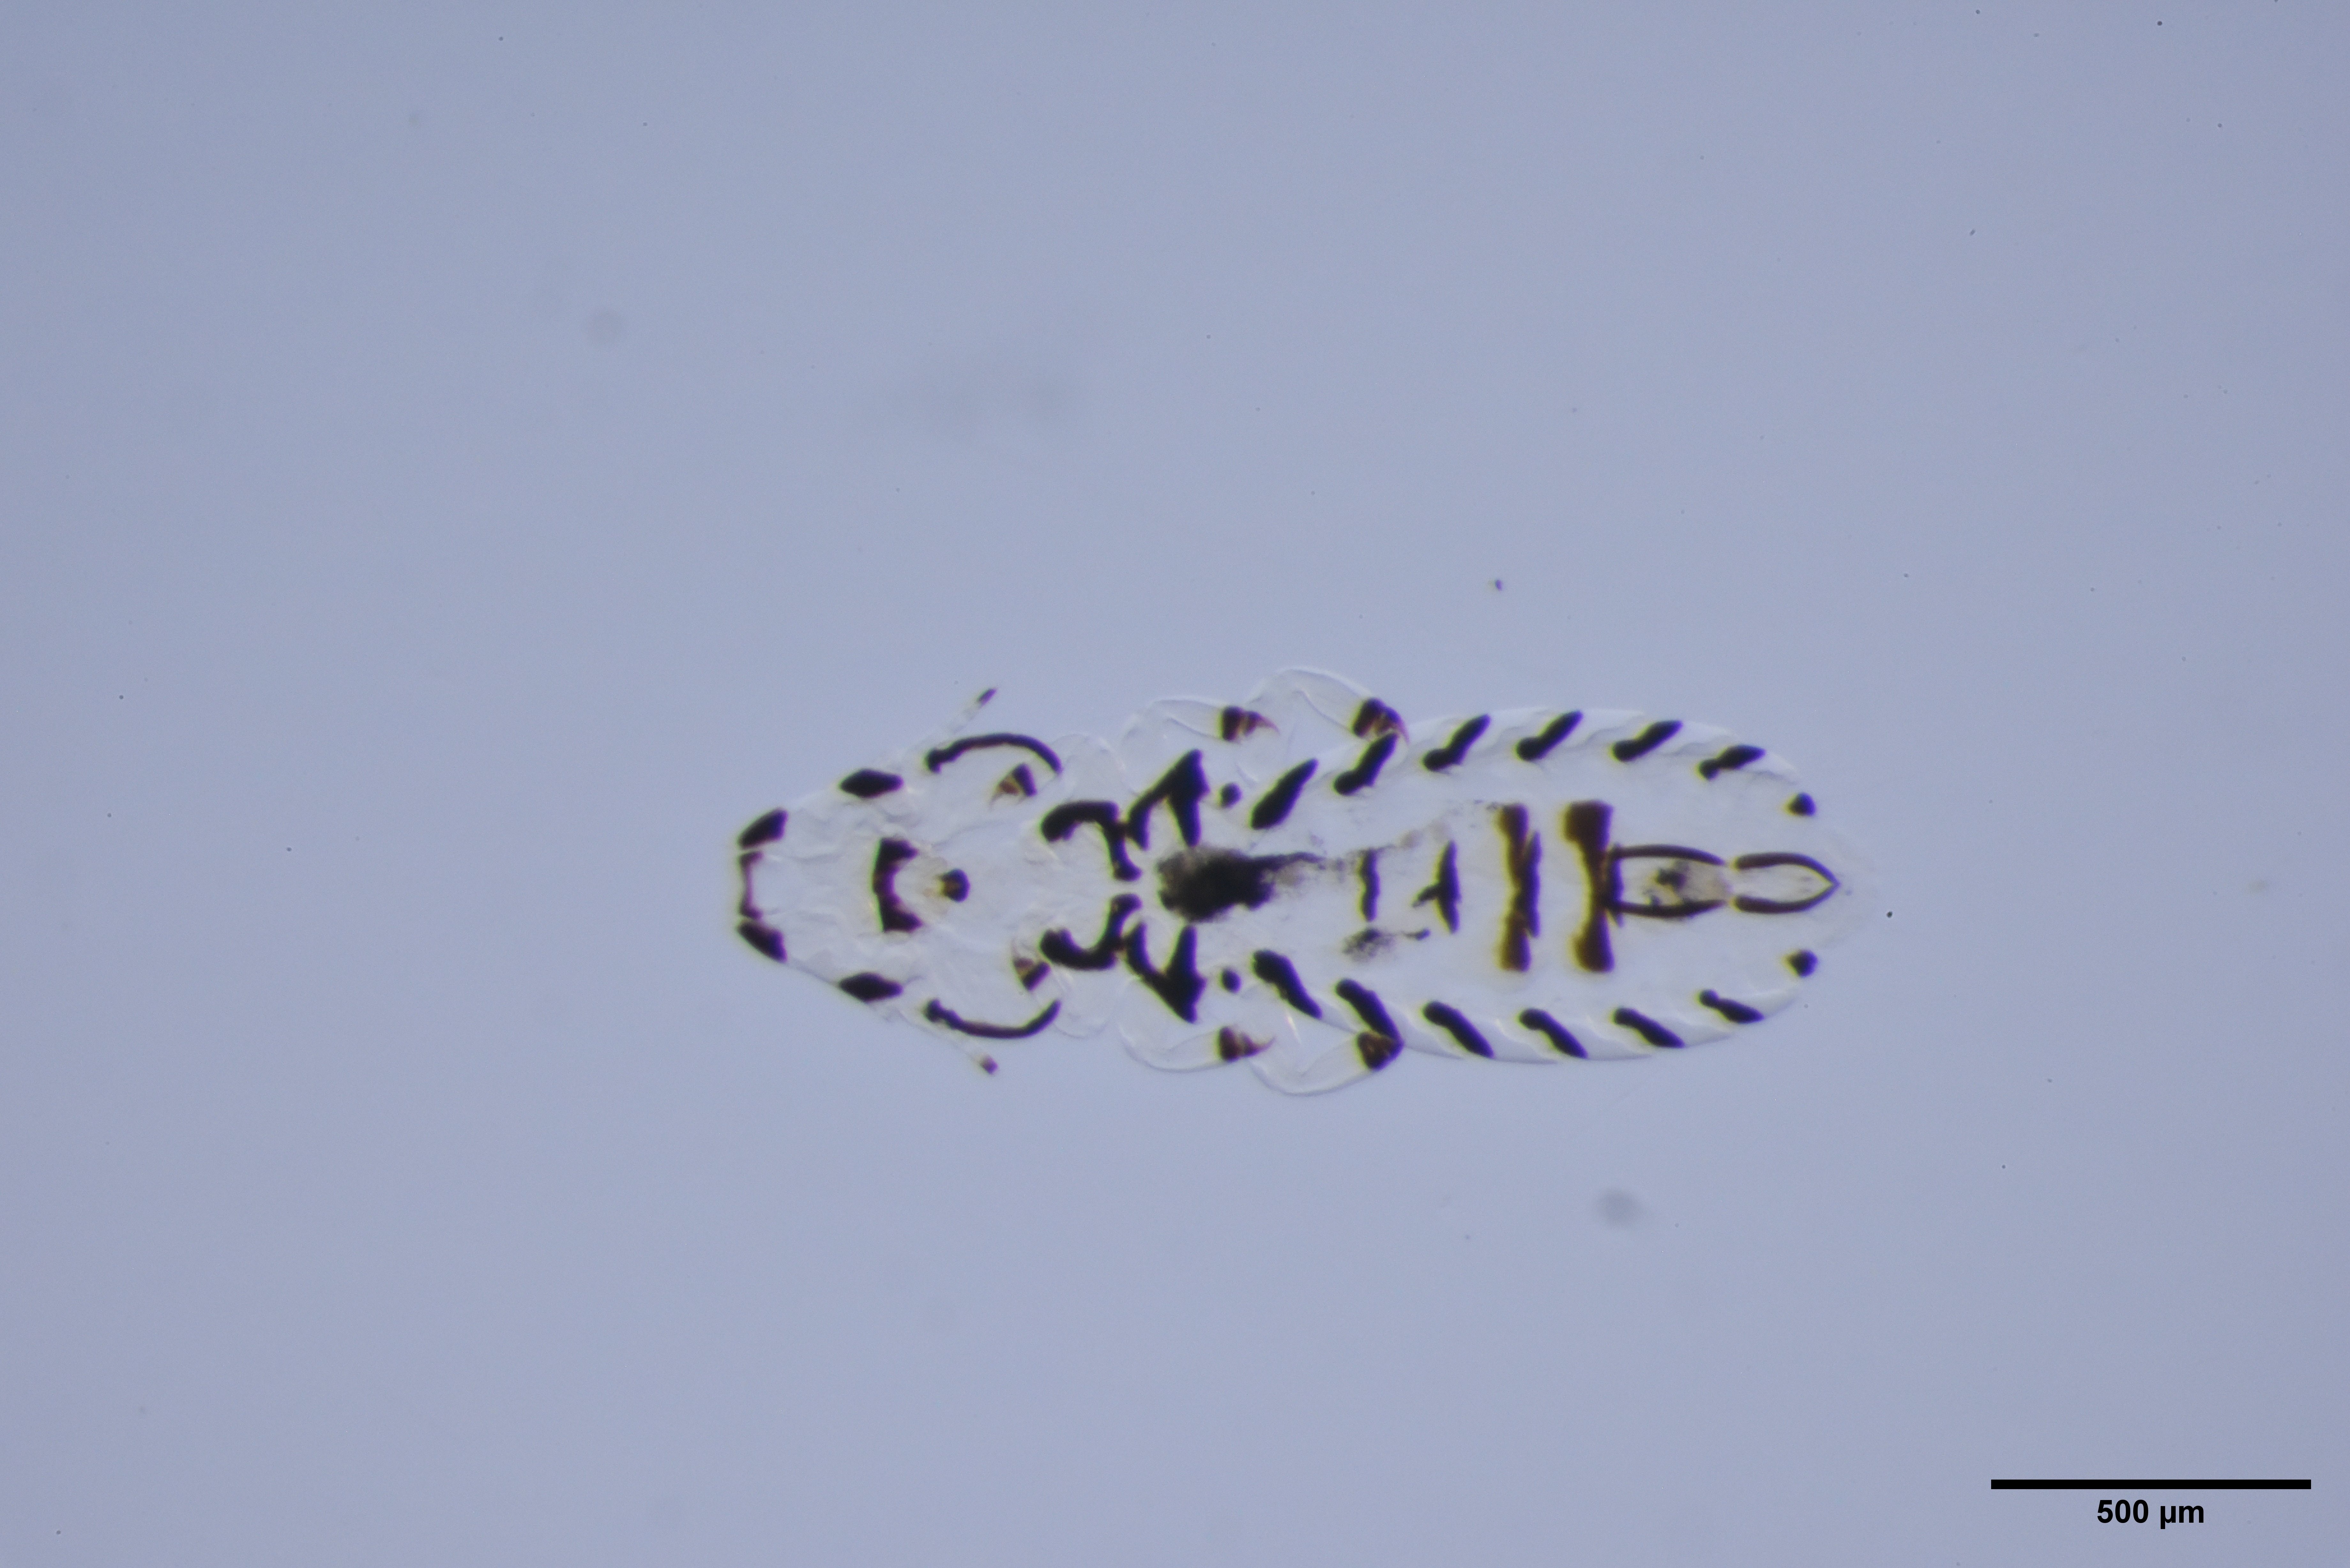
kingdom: Animalia
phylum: Arthropoda
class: Insecta
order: Psocodea
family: Philopteridae
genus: Quadraceps
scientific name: Quadraceps ornatus
